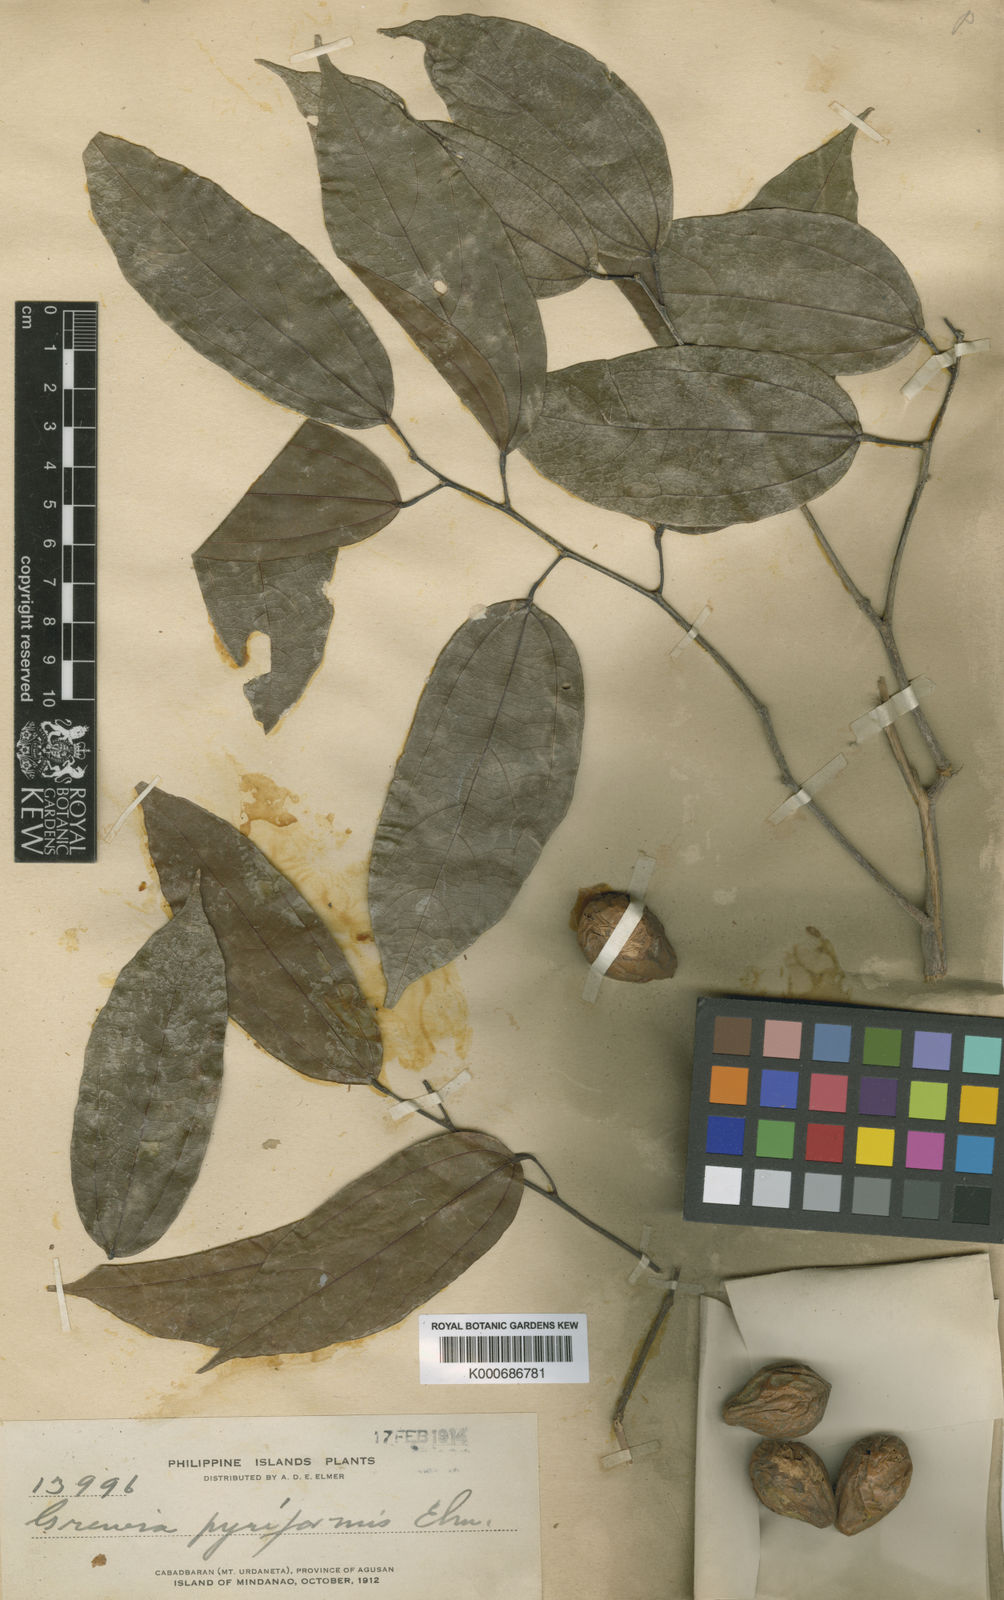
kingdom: Plantae
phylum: Tracheophyta
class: Magnoliopsida
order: Malvales
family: Malvaceae
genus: Microcos
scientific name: Microcos triflora
